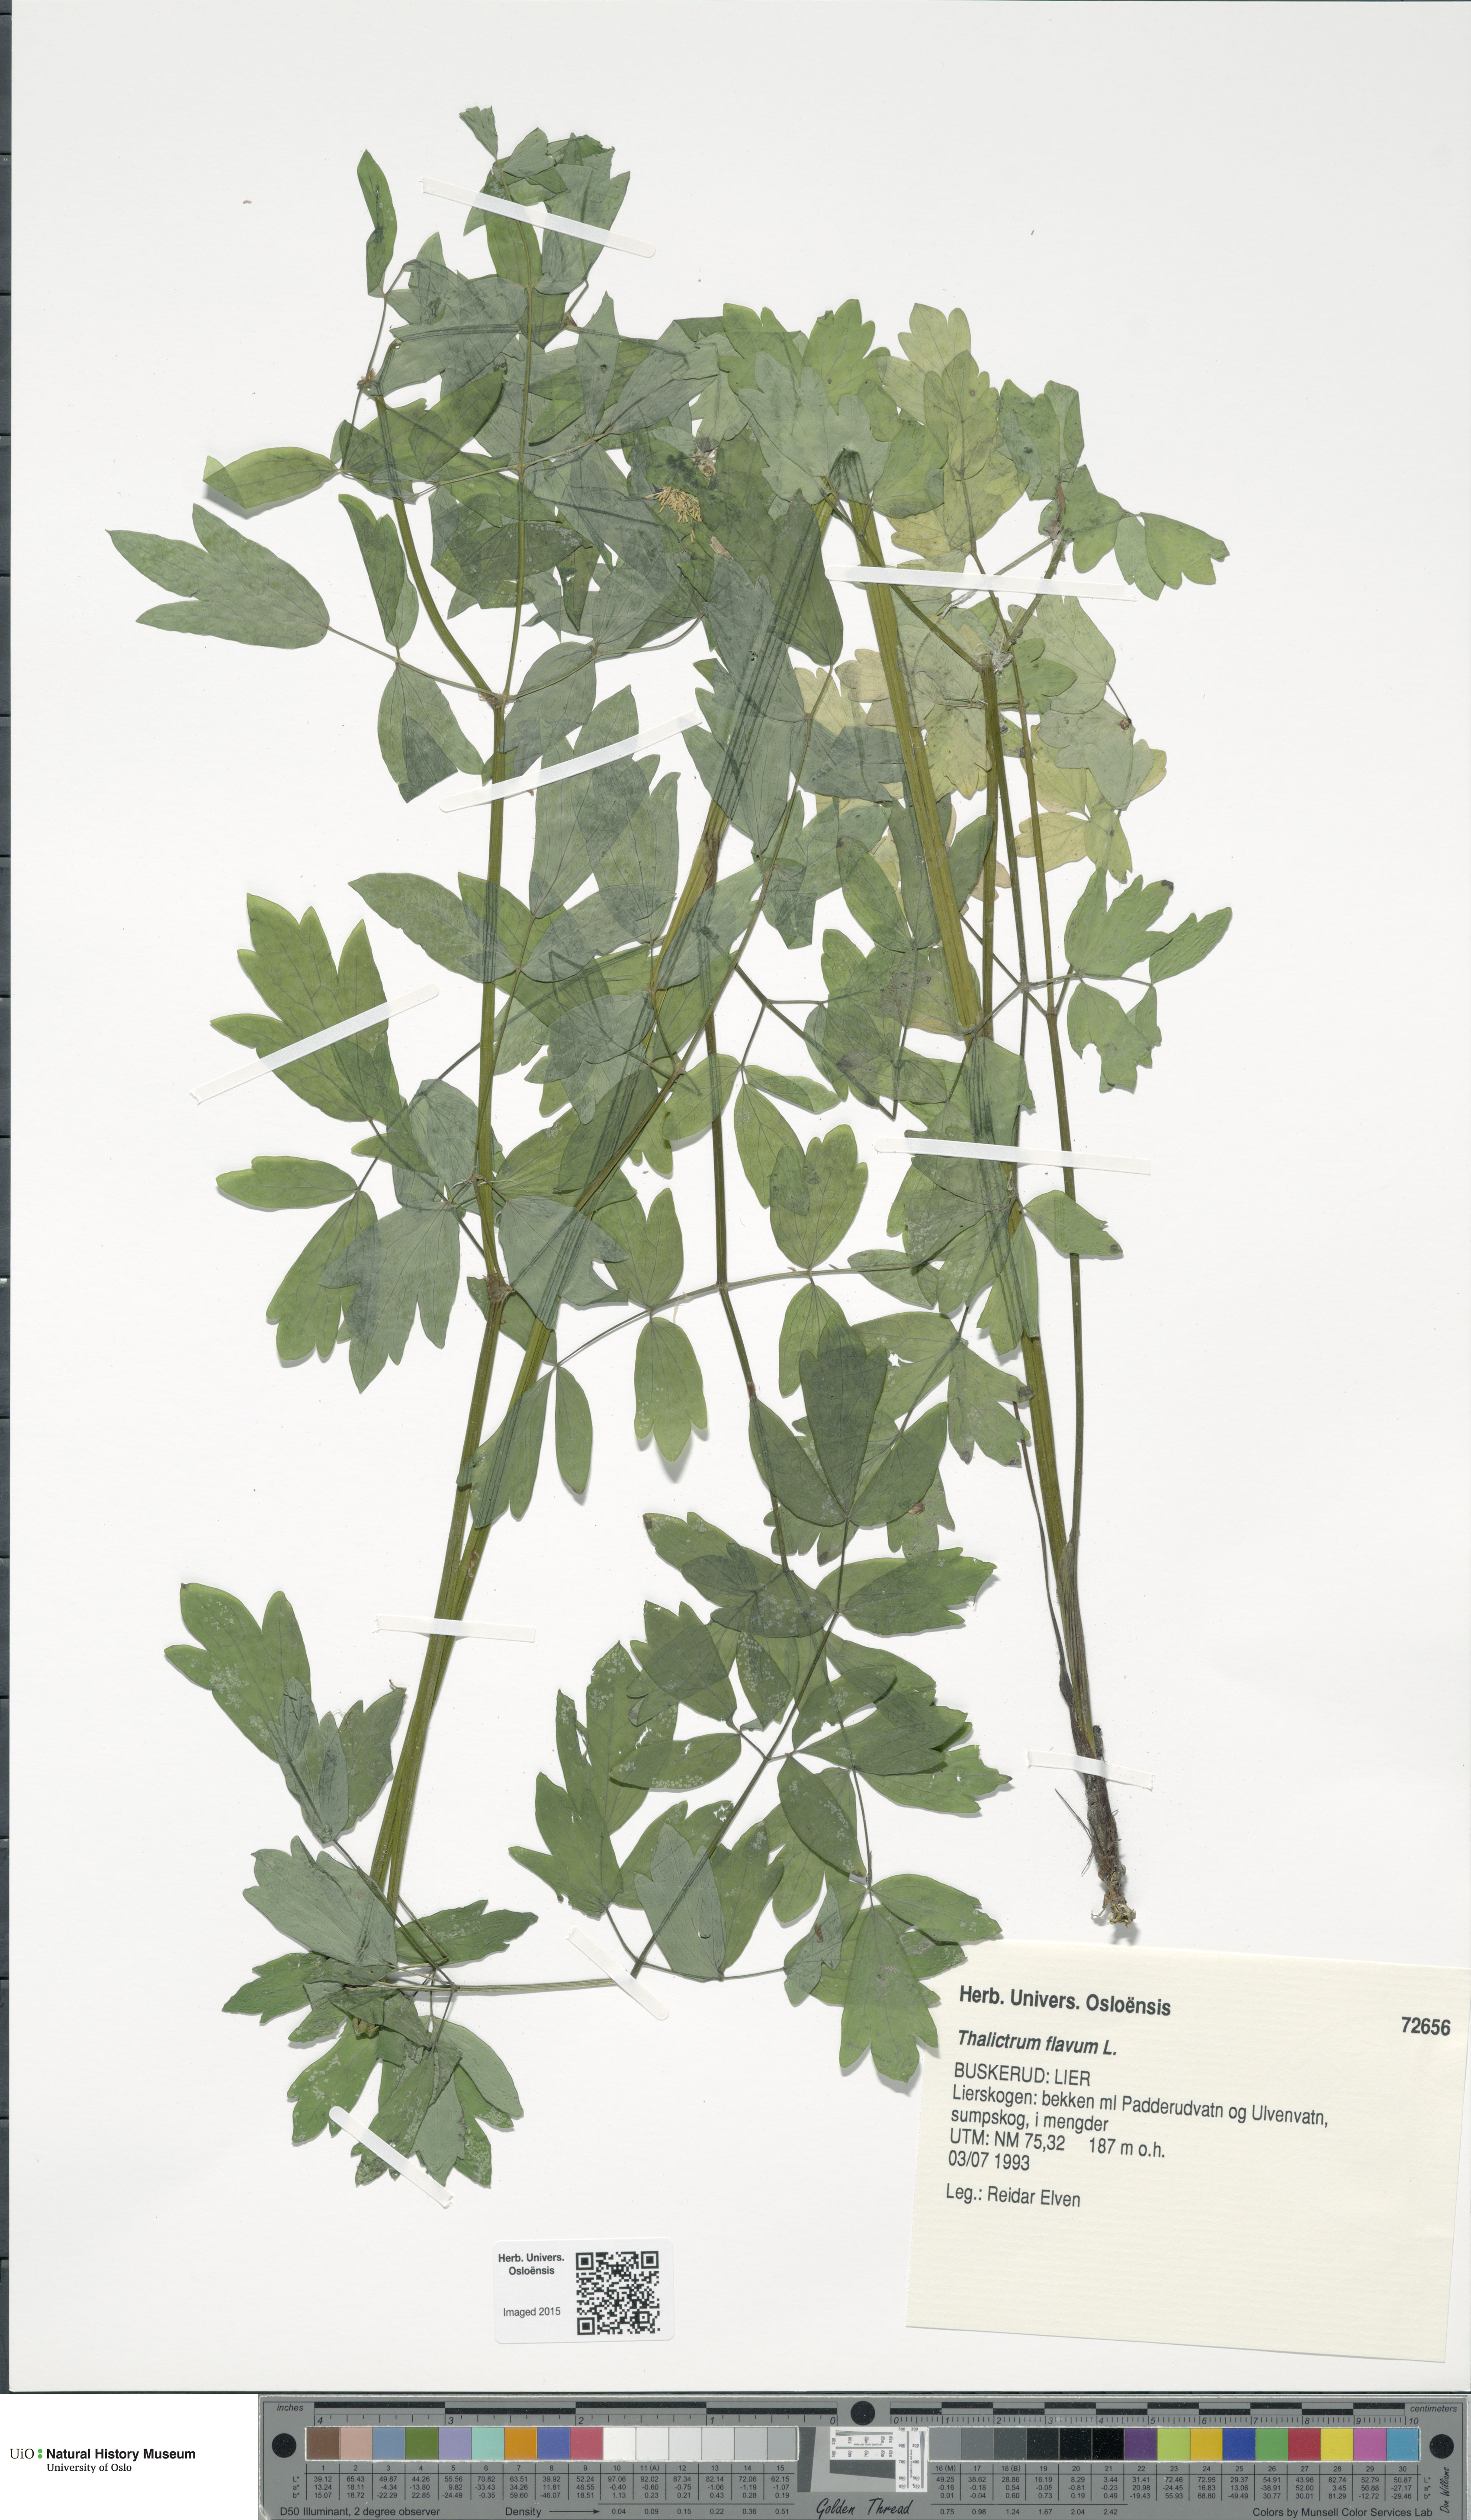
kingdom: Plantae
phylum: Tracheophyta
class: Magnoliopsida
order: Ranunculales
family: Ranunculaceae
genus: Thalictrum
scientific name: Thalictrum flavum
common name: Common meadow-rue
